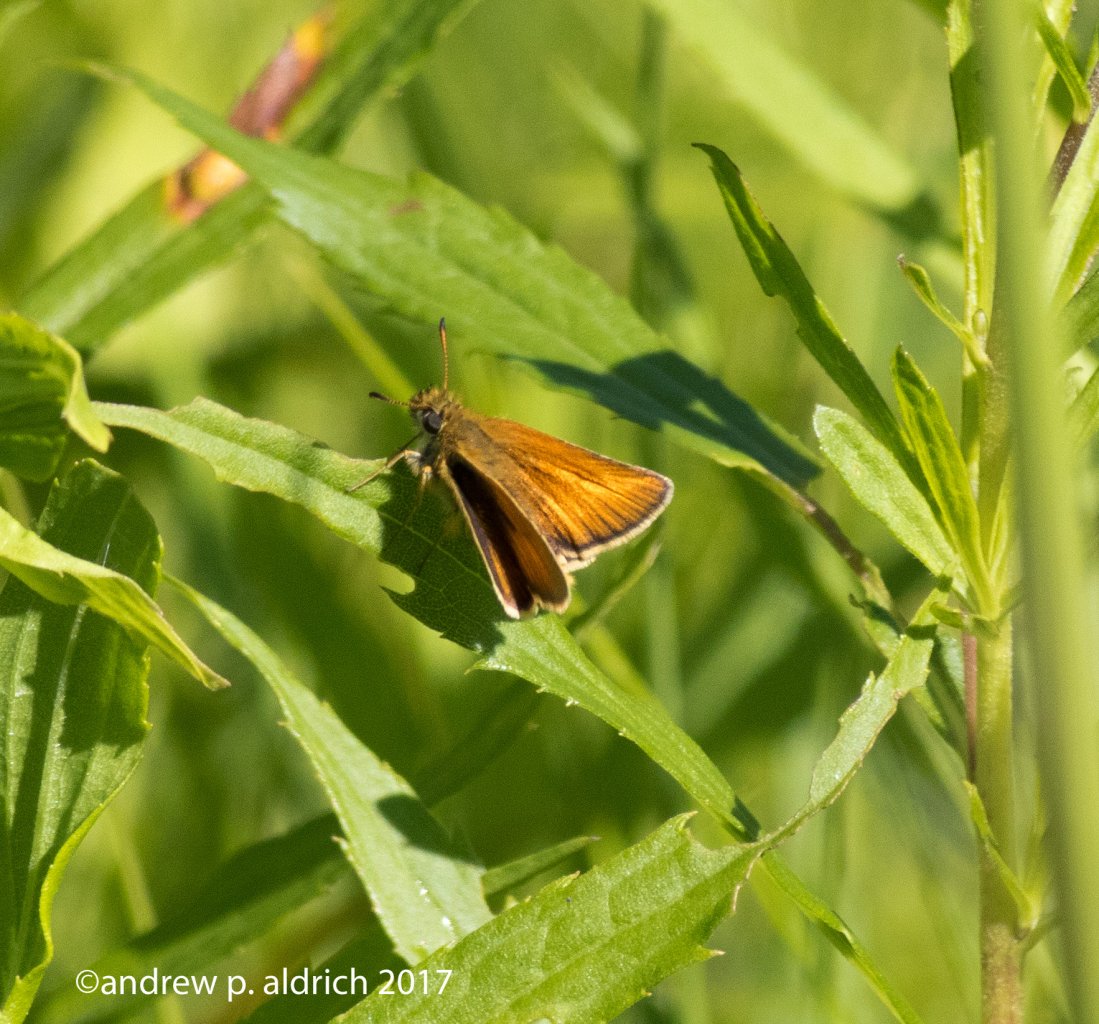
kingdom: Animalia
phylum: Arthropoda
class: Insecta
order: Lepidoptera
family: Hesperiidae
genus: Thymelicus
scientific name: Thymelicus lineola
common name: European Skipper
